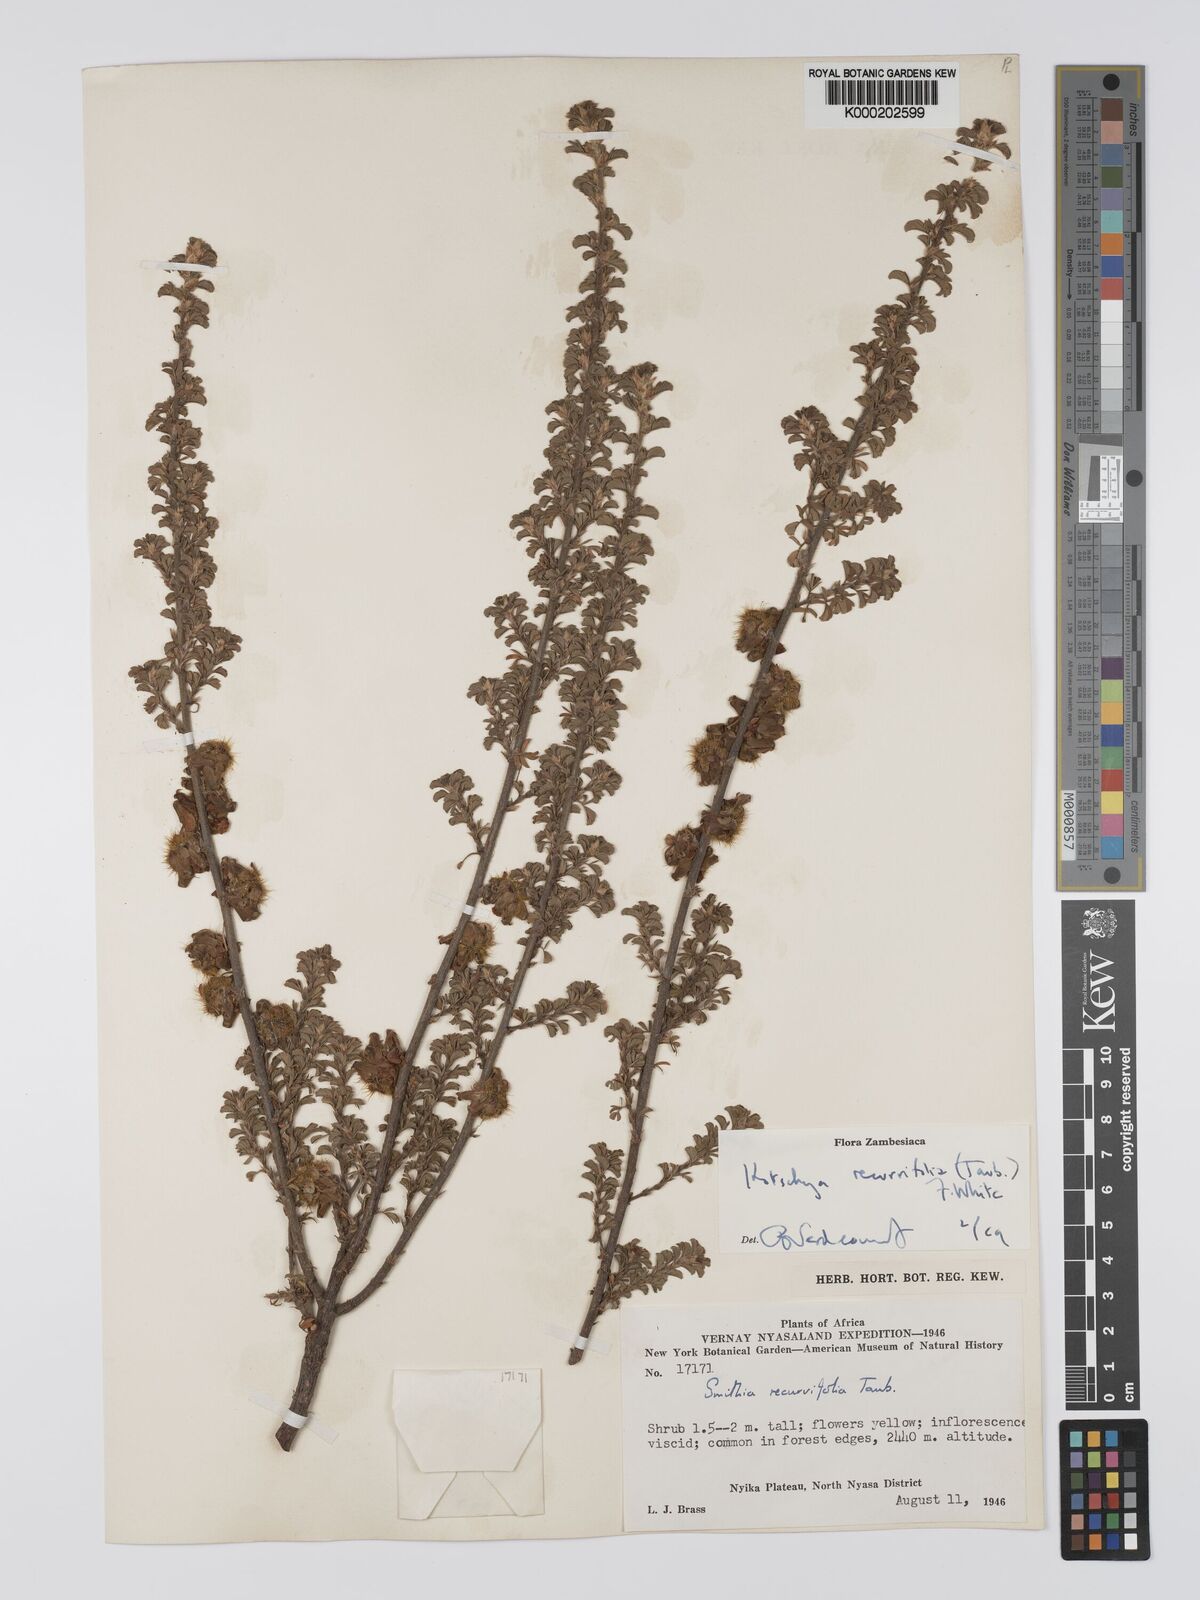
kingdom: Plantae
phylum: Tracheophyta
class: Magnoliopsida
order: Fabales
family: Fabaceae
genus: Kotschya
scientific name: Kotschya recurvifolia
